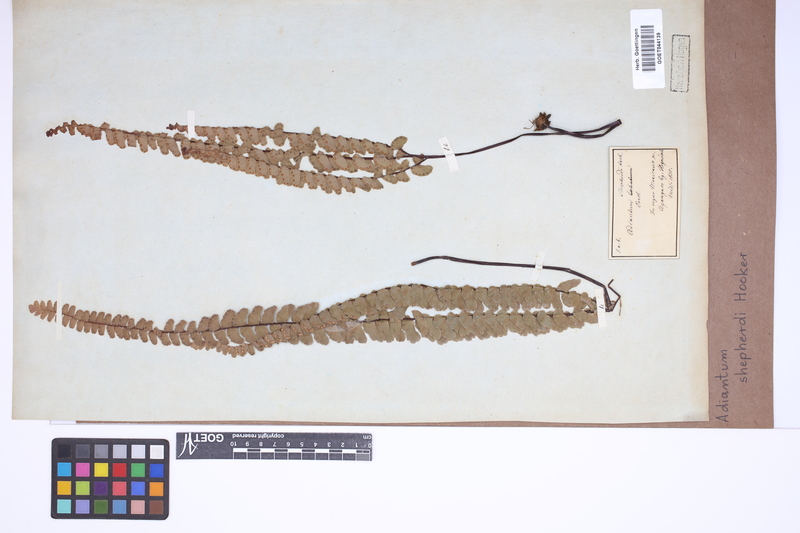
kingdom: Plantae
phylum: Tracheophyta
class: Polypodiopsida
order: Polypodiales
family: Pteridaceae
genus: Adiantum
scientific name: Adiantum shepherdii
